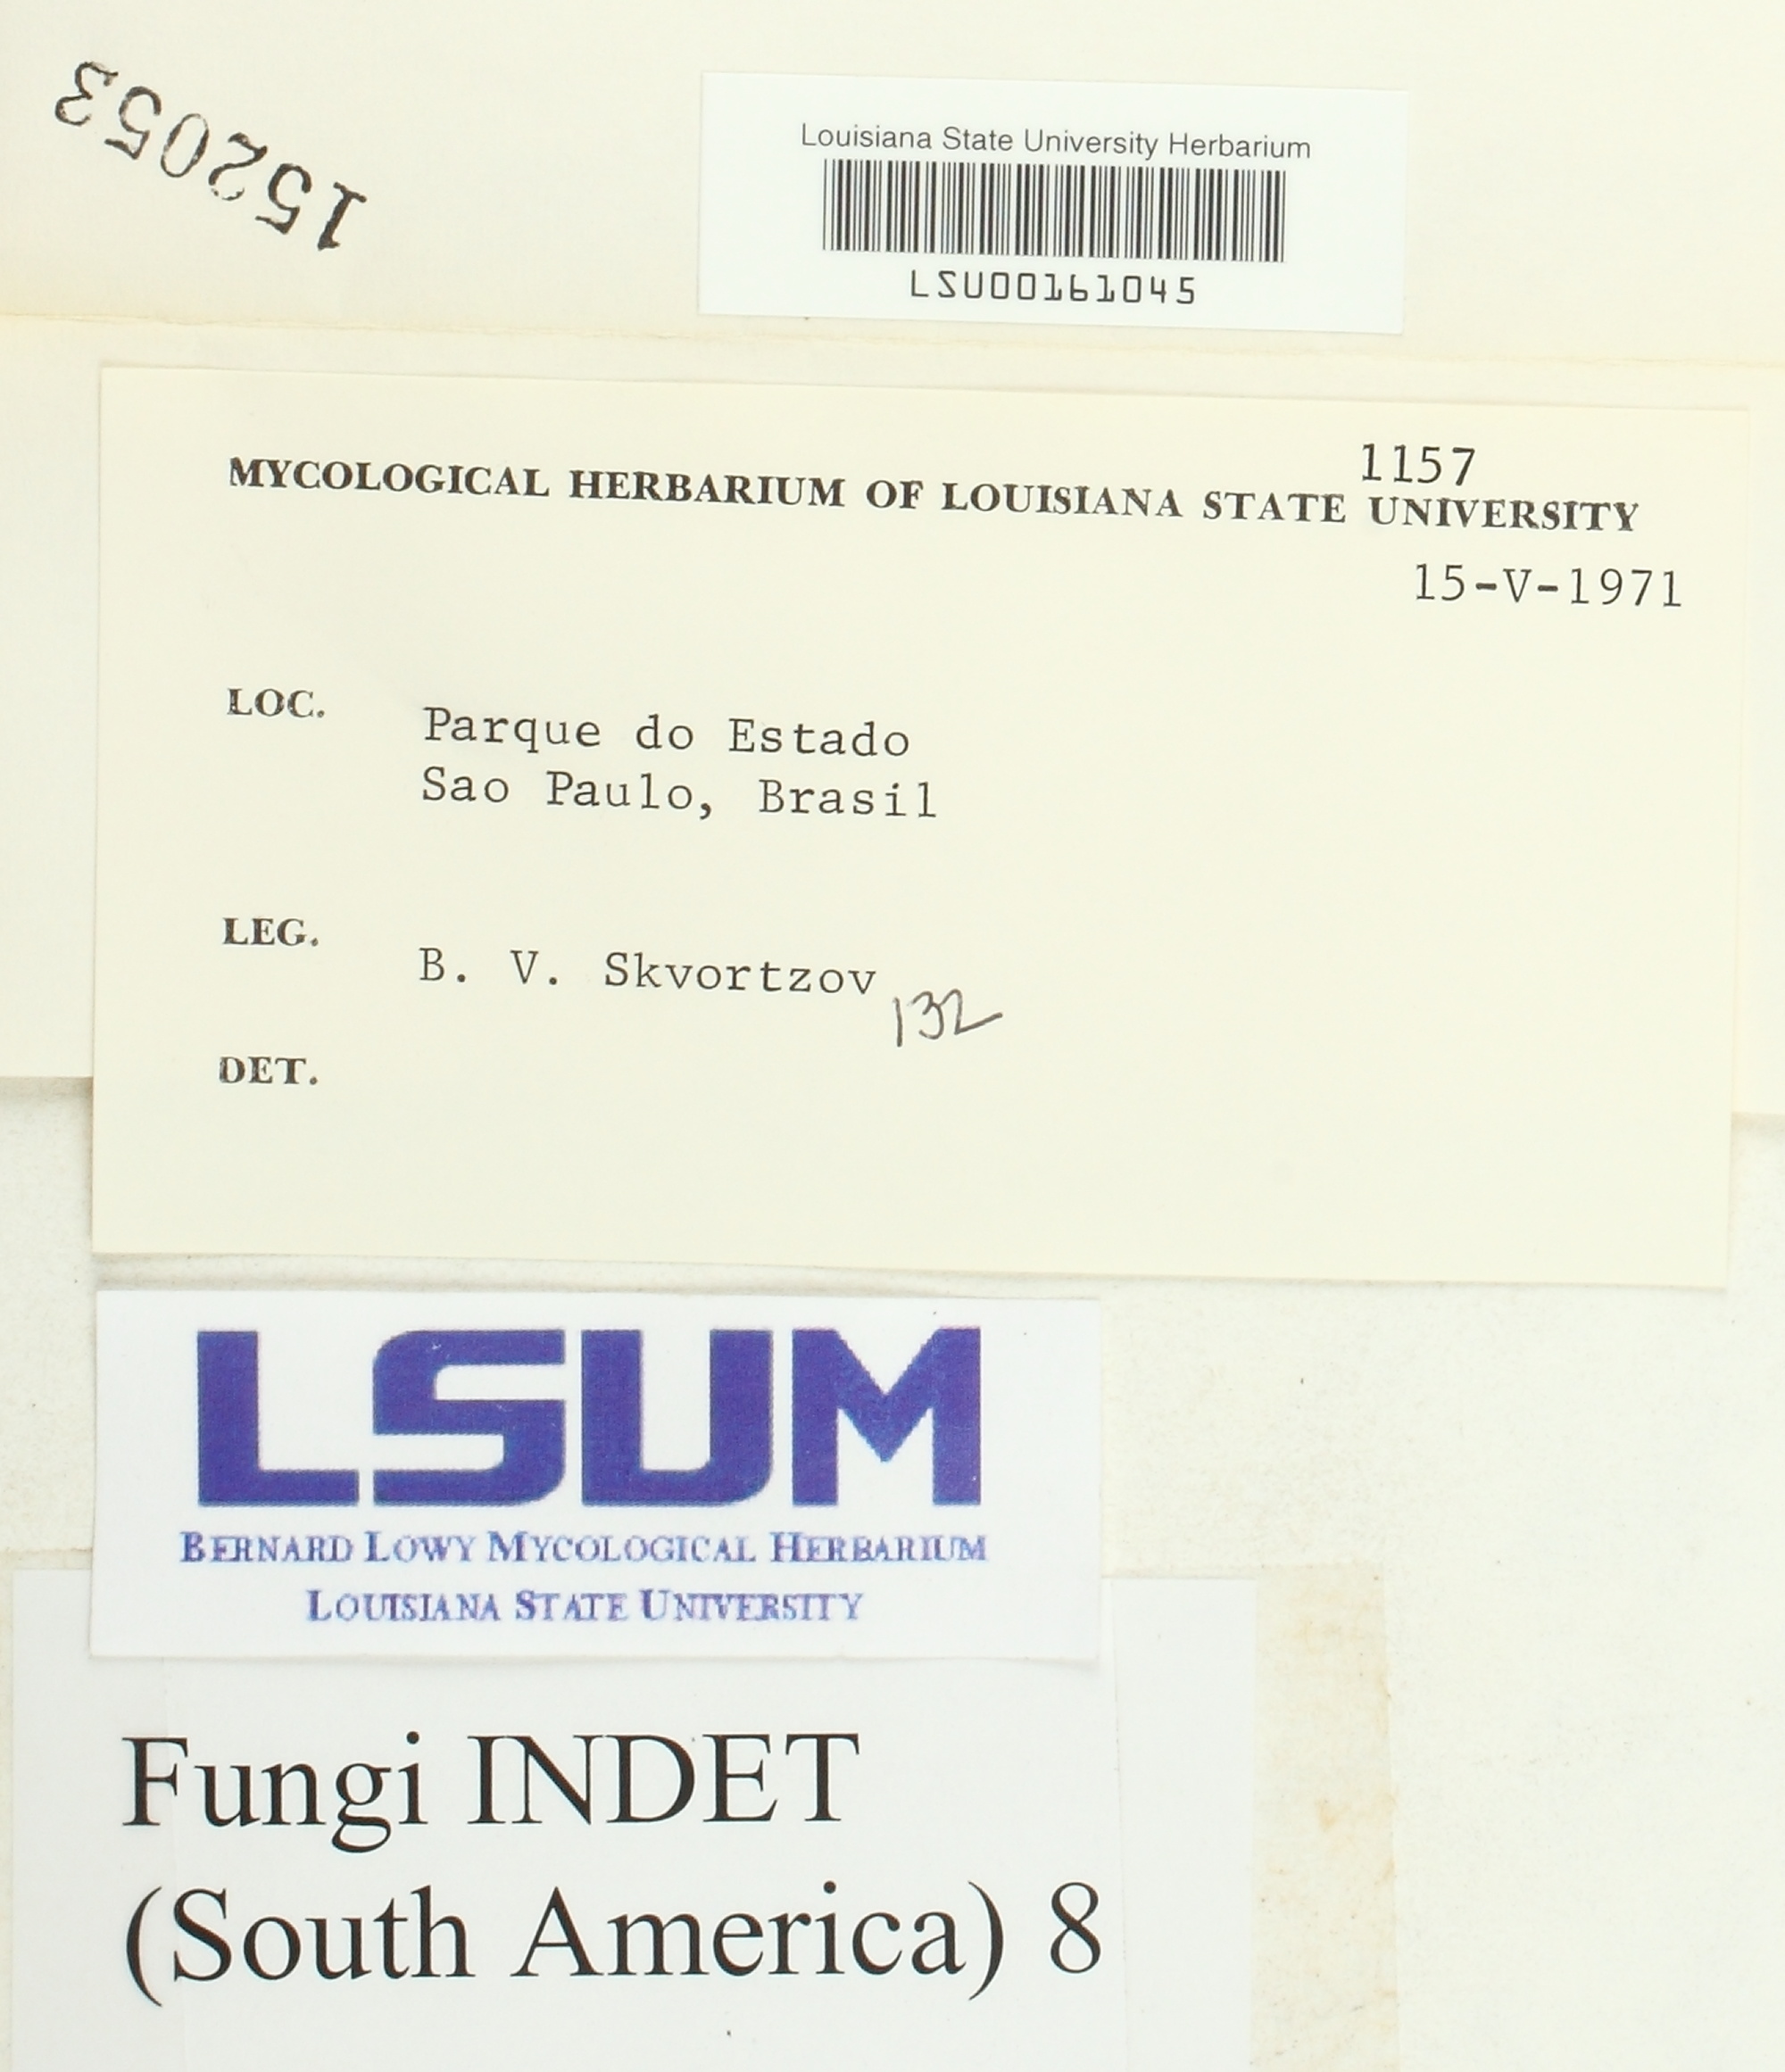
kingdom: Fungi
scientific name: Fungi
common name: Fungi
